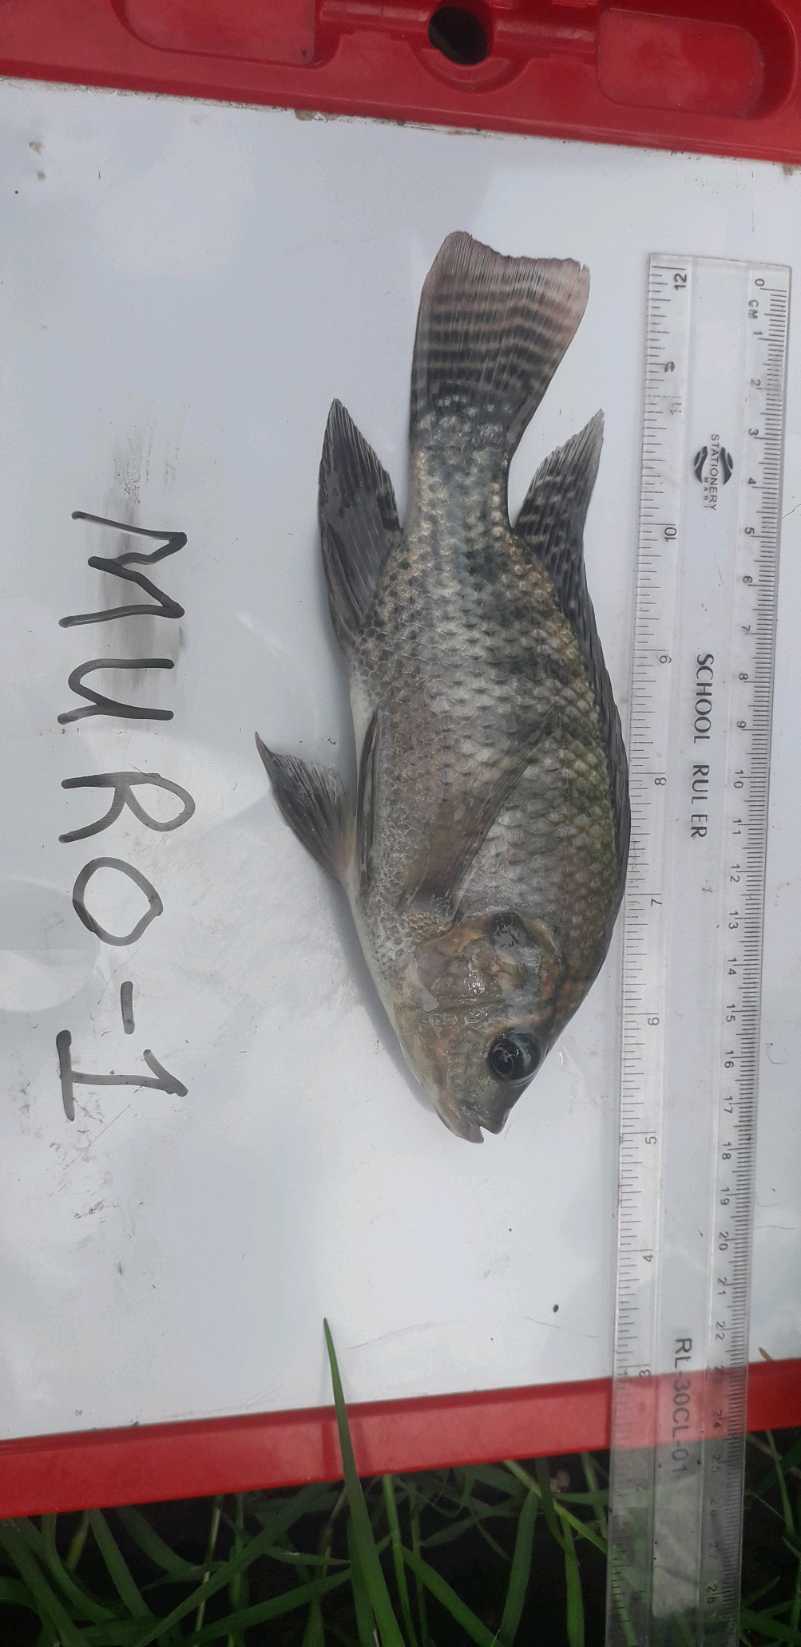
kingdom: Animalia
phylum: Chordata
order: Perciformes
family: Cichlidae
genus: Oreochromis
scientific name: Oreochromis niloticus
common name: Nile tilapia
